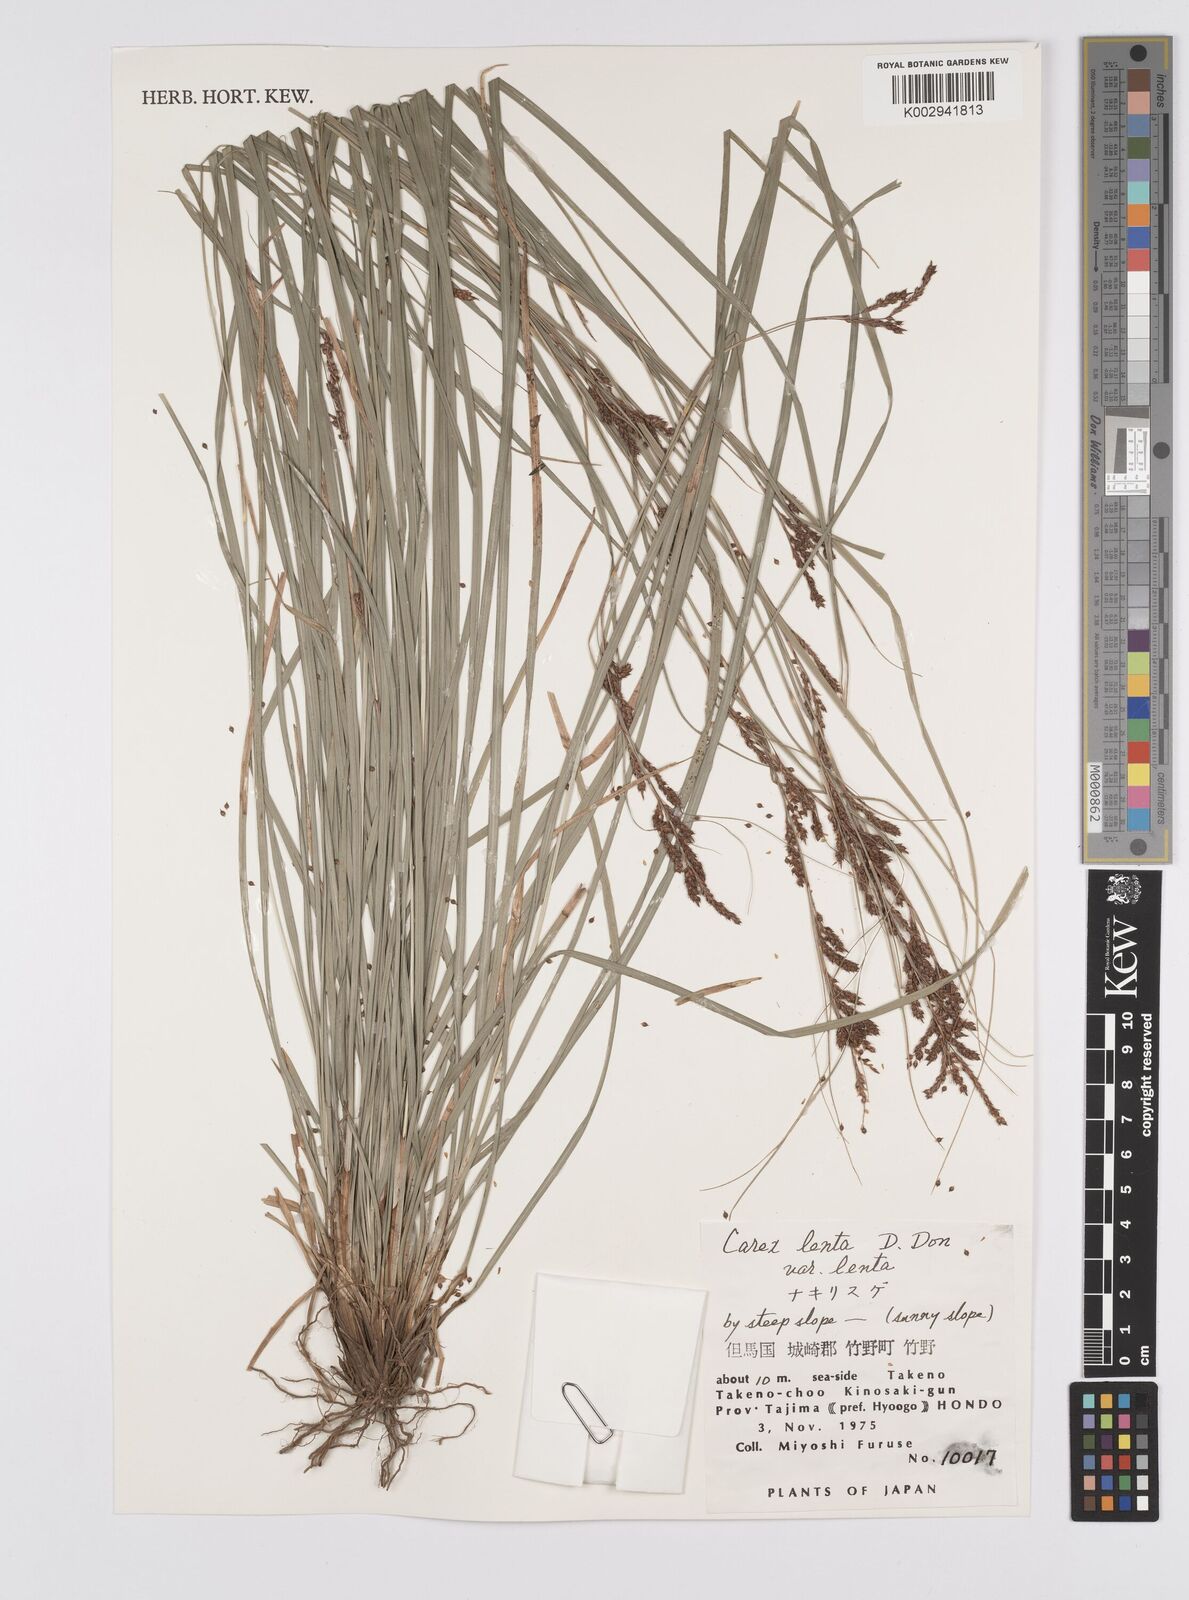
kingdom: Plantae
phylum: Tracheophyta
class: Liliopsida
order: Poales
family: Cyperaceae
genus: Carex
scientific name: Carex brunnea
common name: Greater brown sedge
